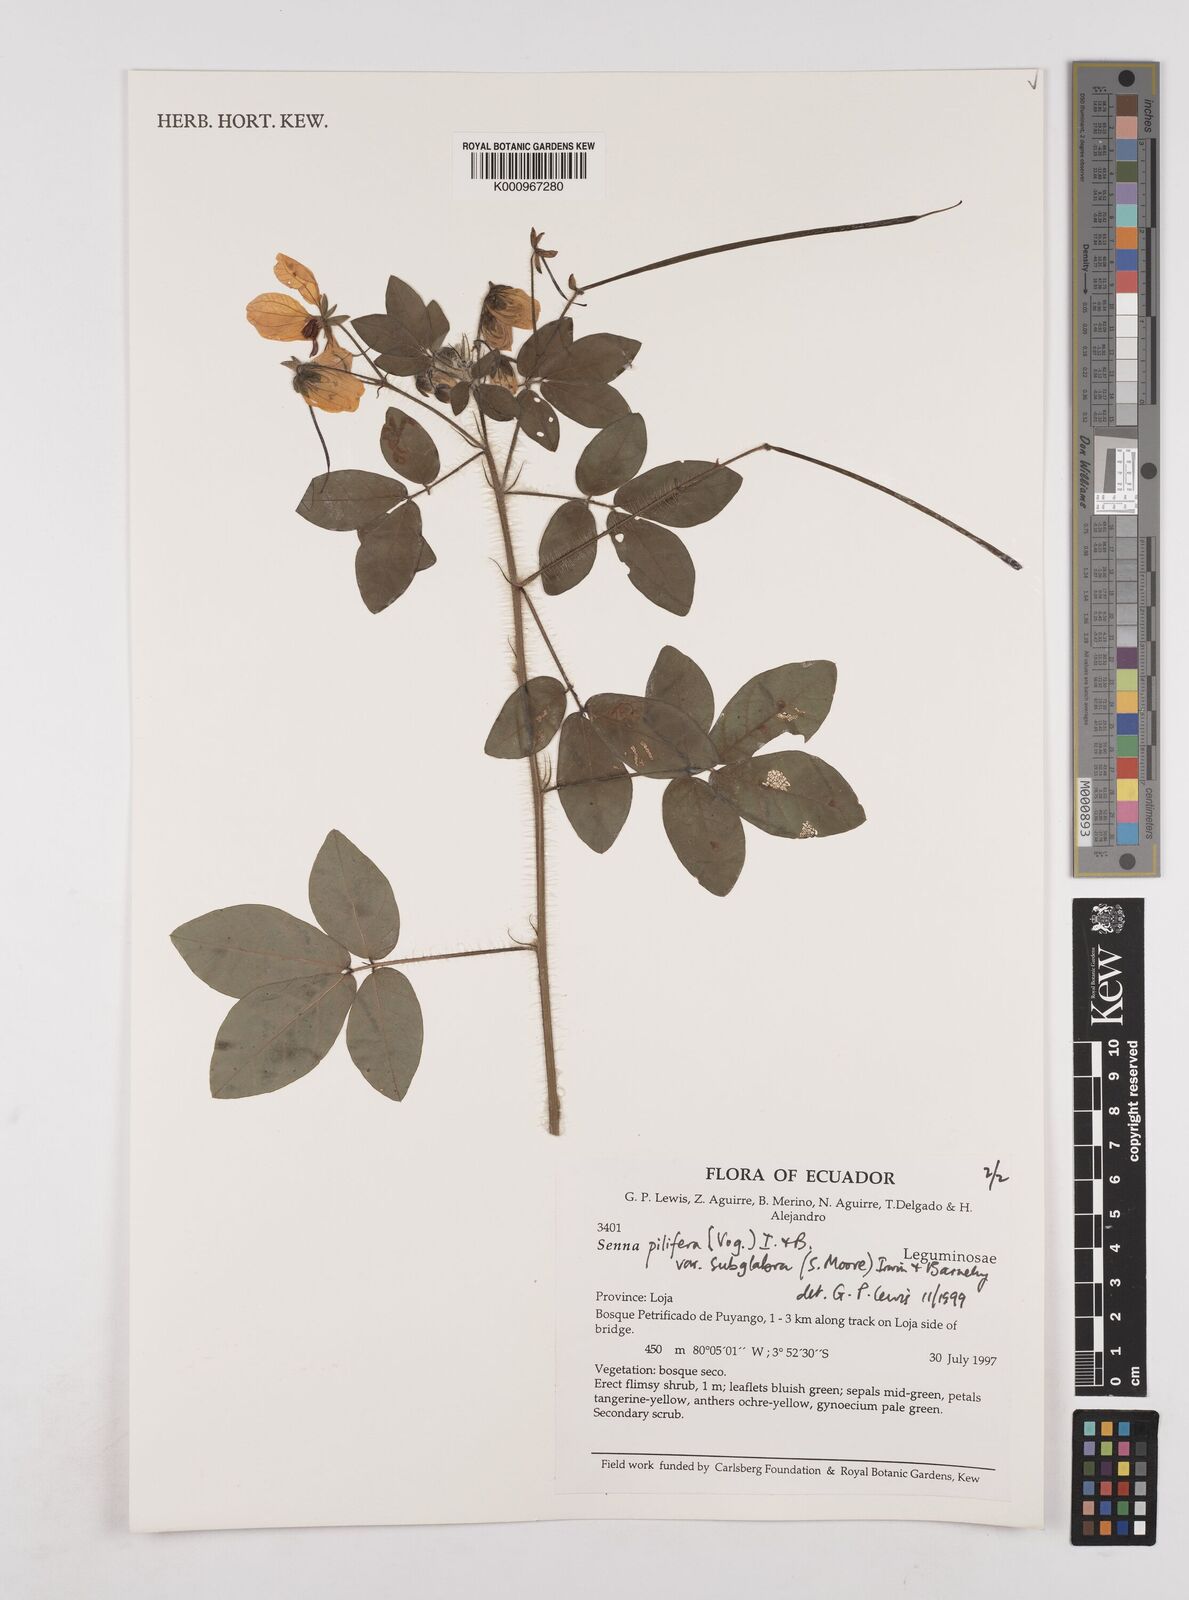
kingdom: Plantae
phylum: Tracheophyta
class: Magnoliopsida
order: Fabales
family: Fabaceae
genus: Senna
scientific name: Senna pilifera
